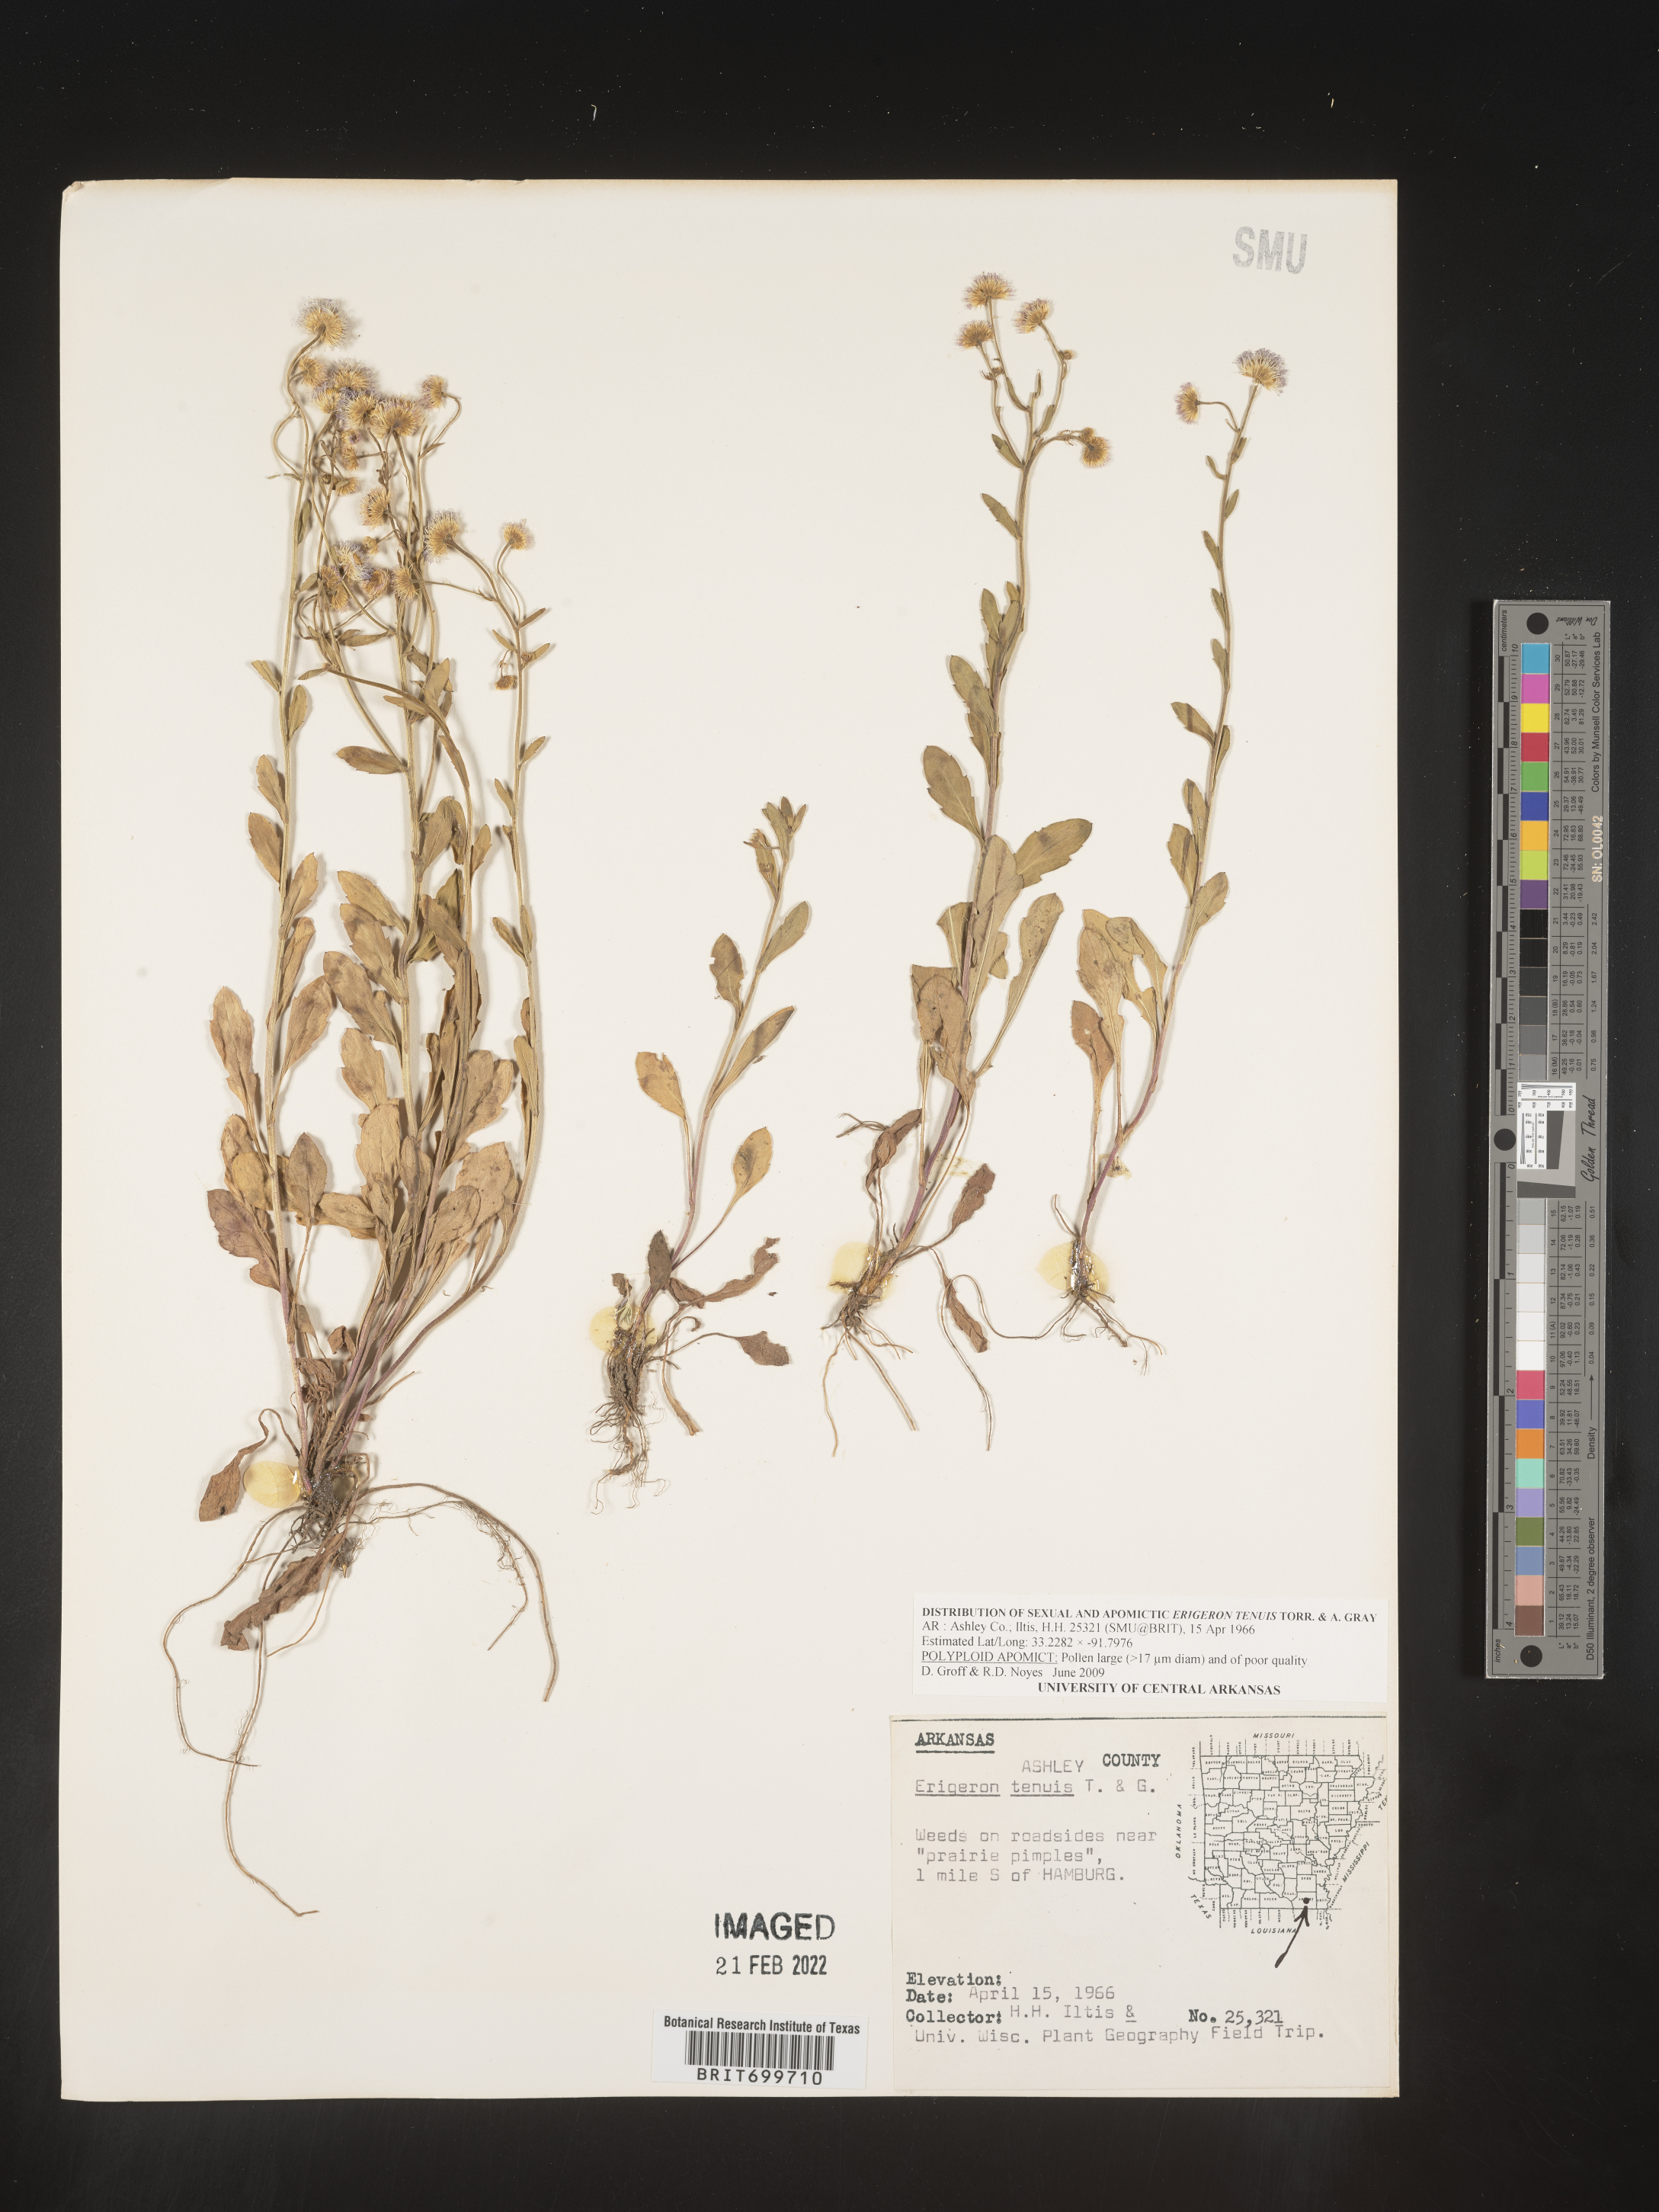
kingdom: Plantae
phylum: Tracheophyta
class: Magnoliopsida
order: Asterales
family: Asteraceae
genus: Erigeron
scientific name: Erigeron tenuis
